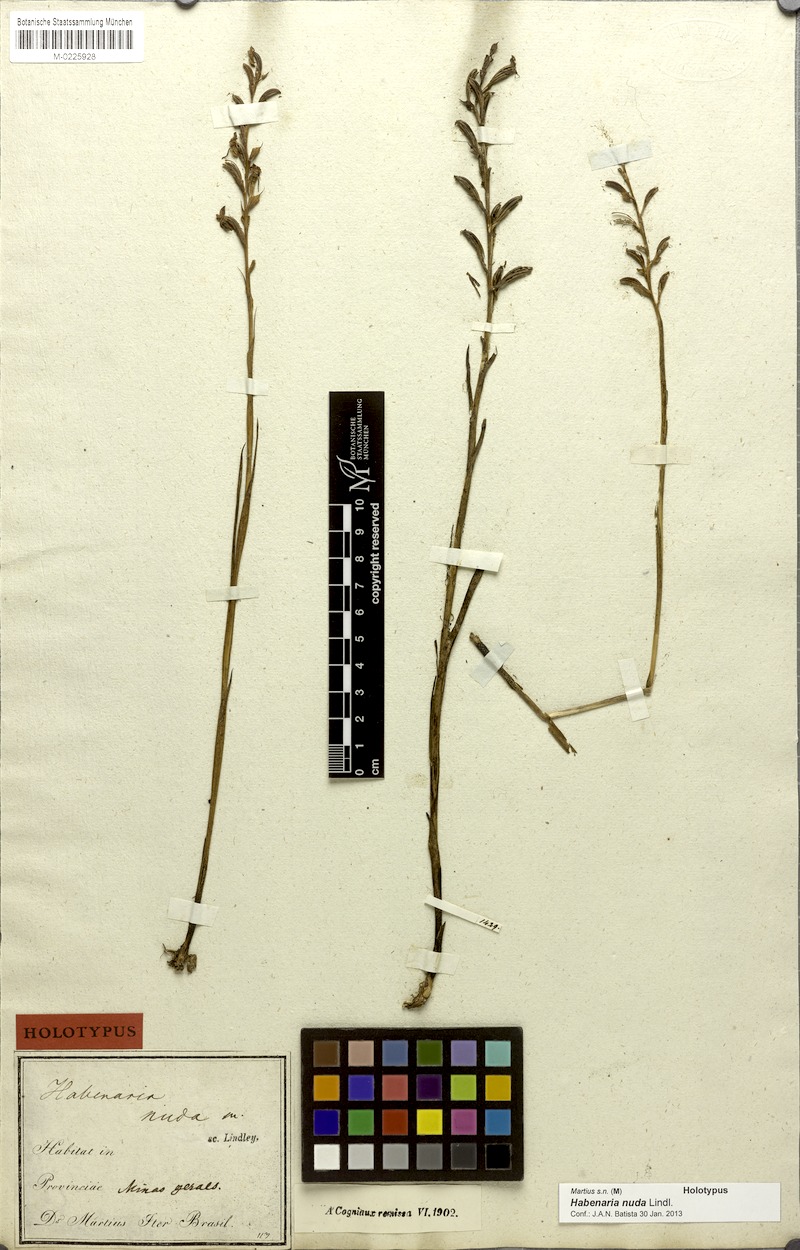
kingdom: Plantae
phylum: Tracheophyta
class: Liliopsida
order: Asparagales
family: Orchidaceae
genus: Habenaria
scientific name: Habenaria nuda
